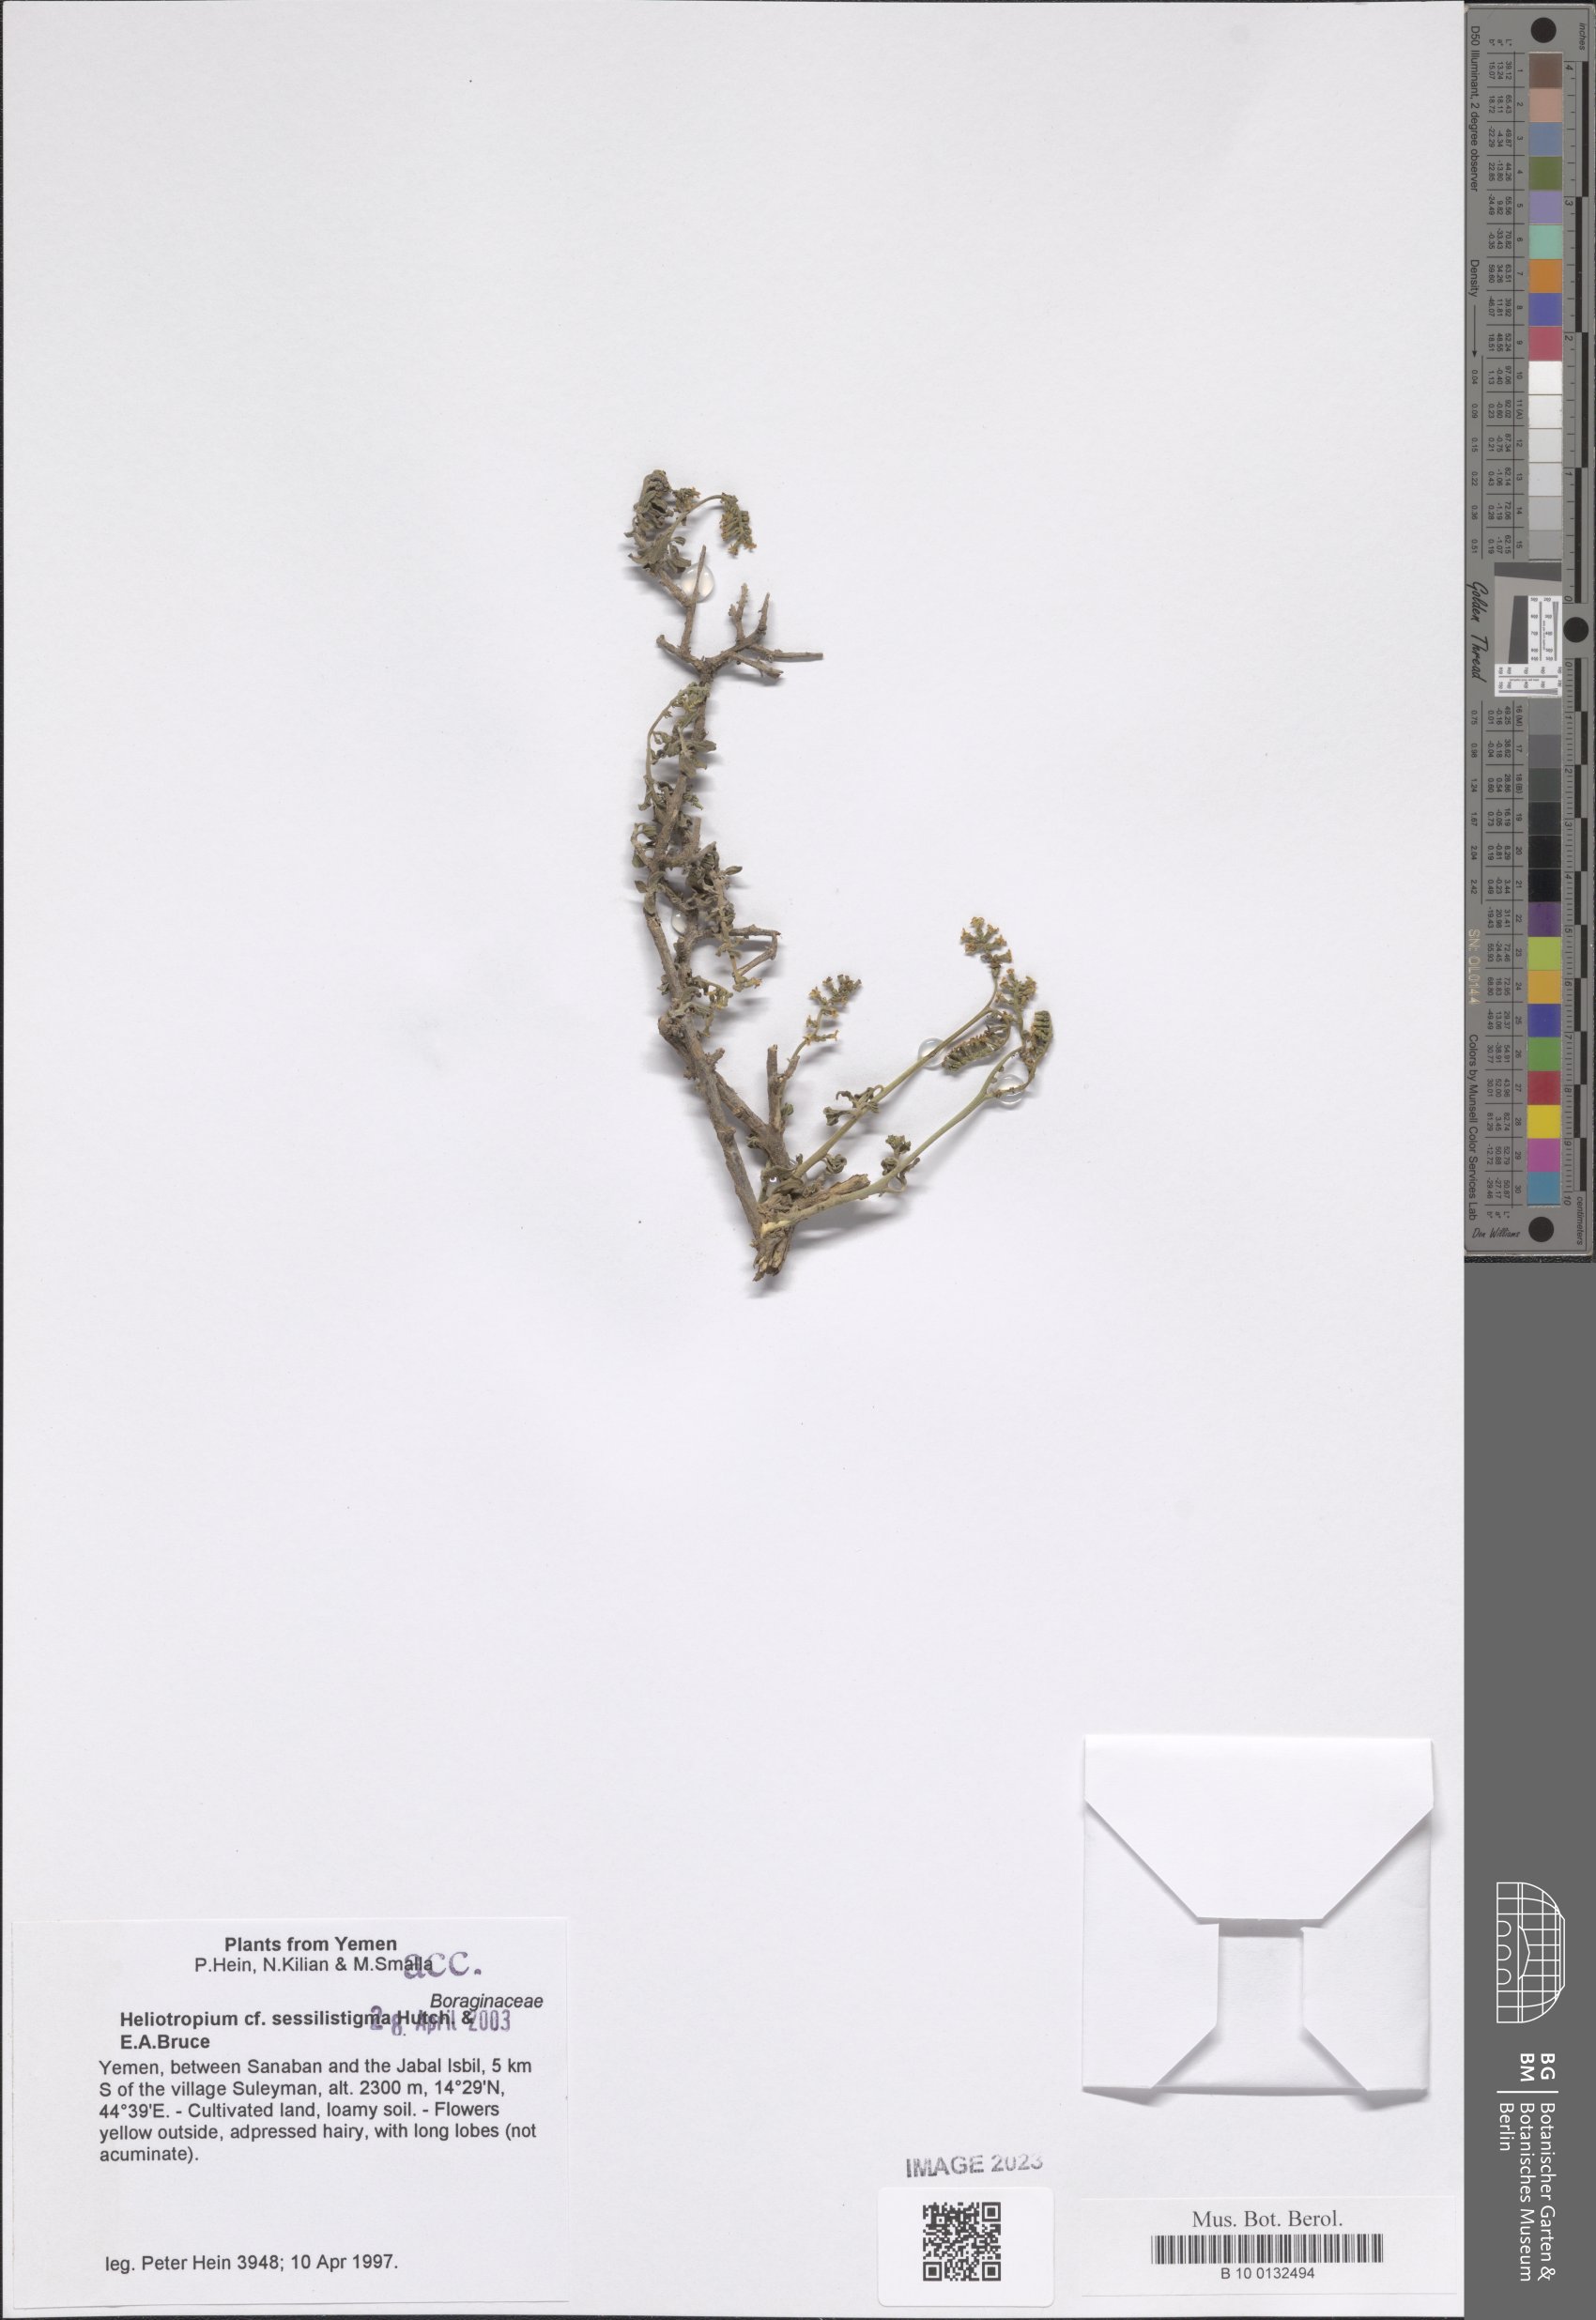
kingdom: Plantae
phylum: Tracheophyta
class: Magnoliopsida
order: Boraginales
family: Heliotropiaceae
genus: Euploca
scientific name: Euploca sessilistigma
